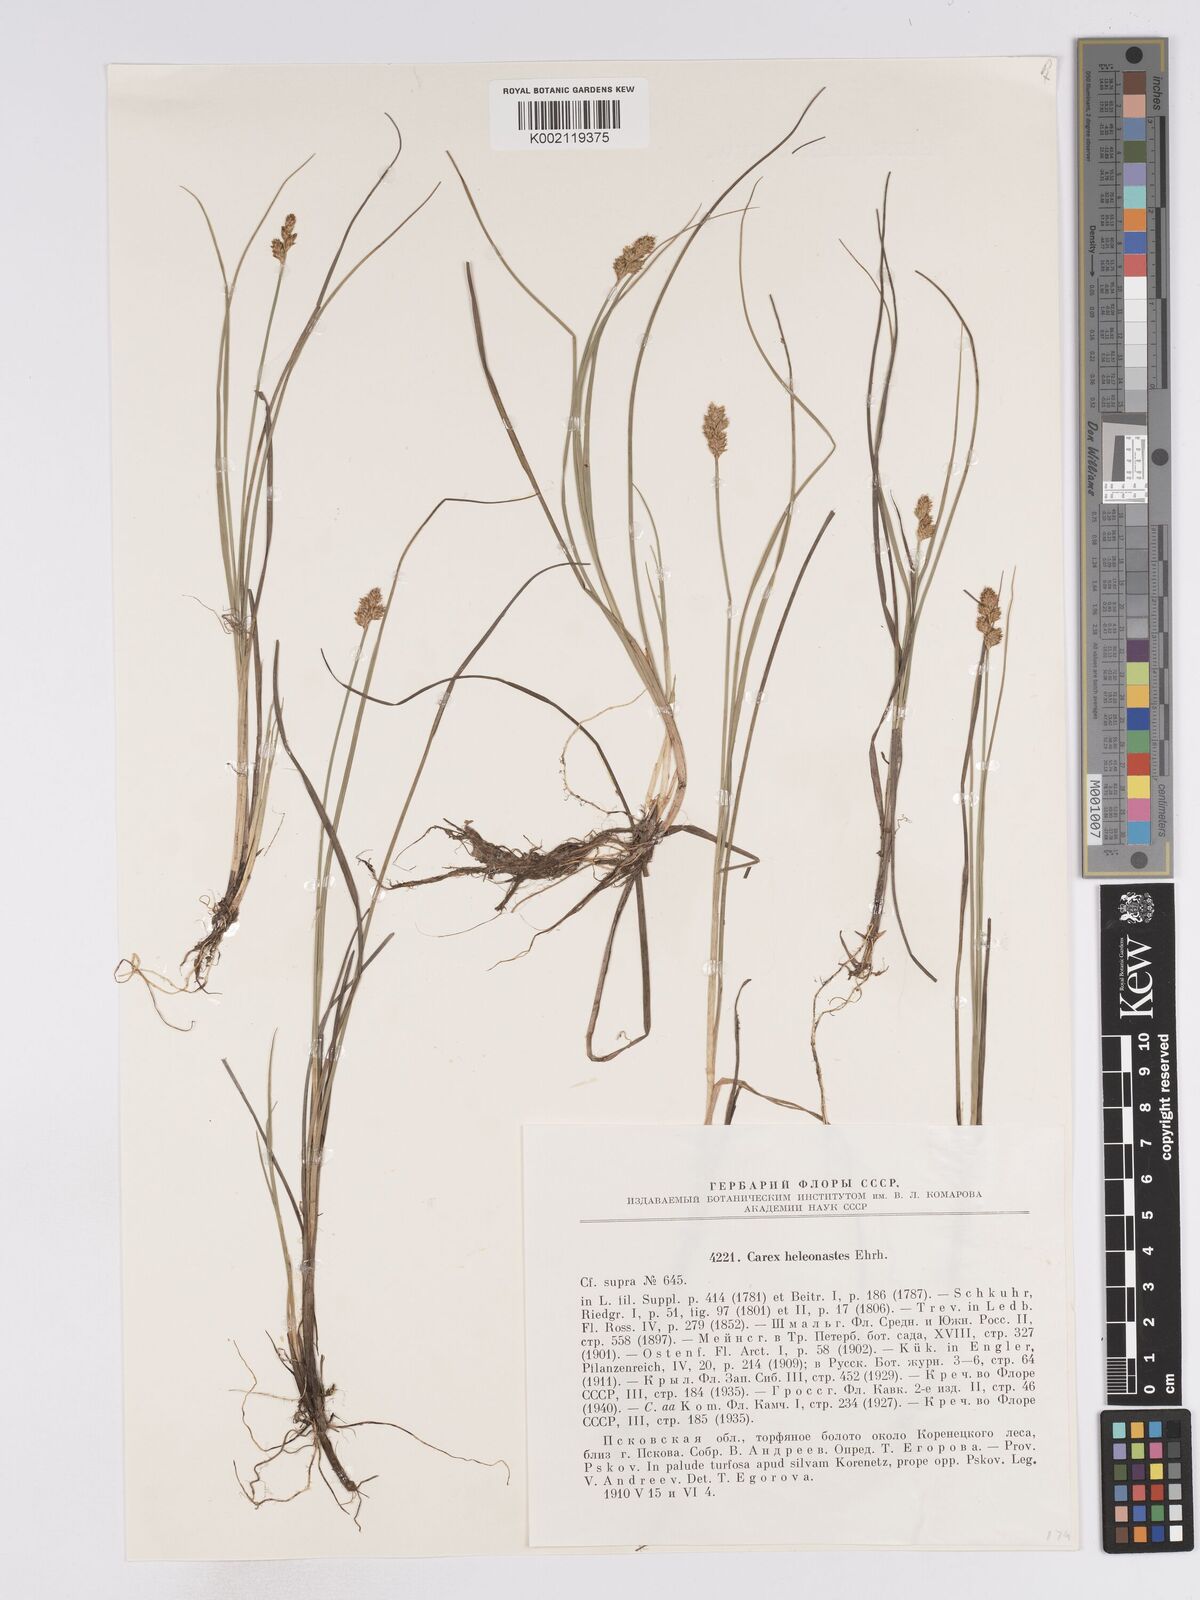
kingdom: Plantae
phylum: Tracheophyta
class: Liliopsida
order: Poales
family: Cyperaceae
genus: Carex
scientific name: Carex heleonastes
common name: Hudson bay sedge
